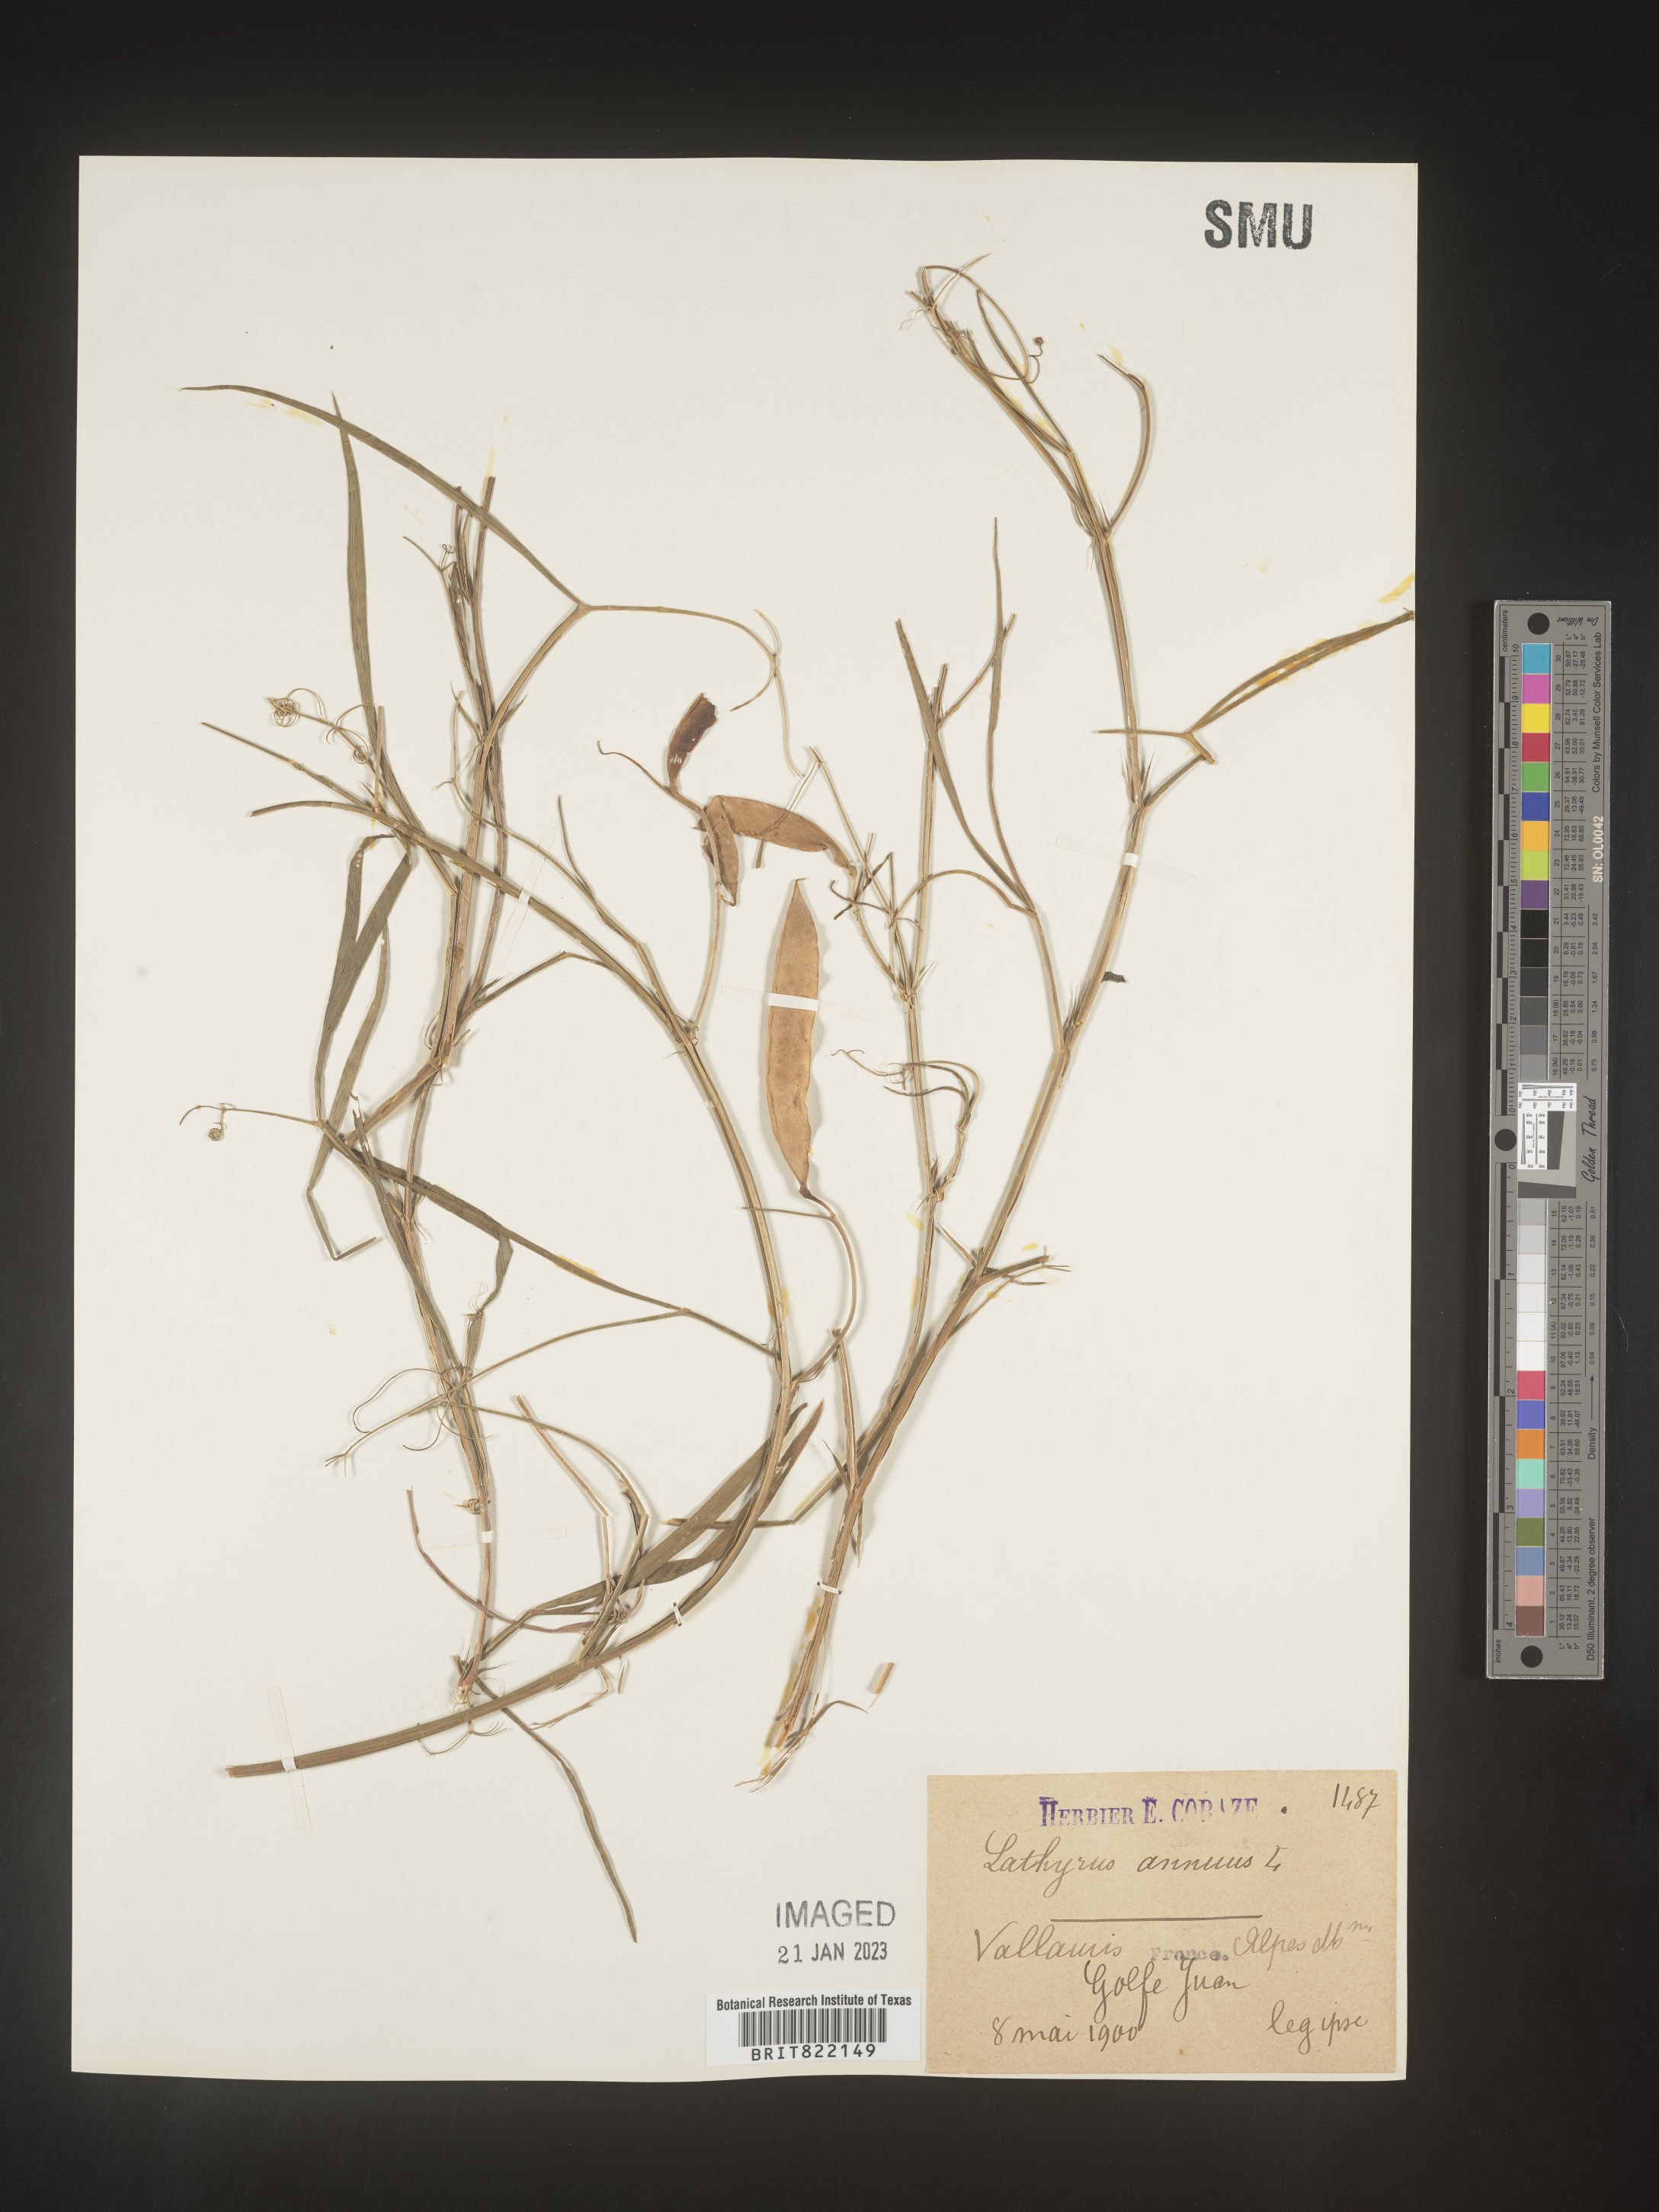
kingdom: Plantae
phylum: Tracheophyta
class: Magnoliopsida
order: Fabales
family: Fabaceae
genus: Lathyrus
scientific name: Lathyrus
